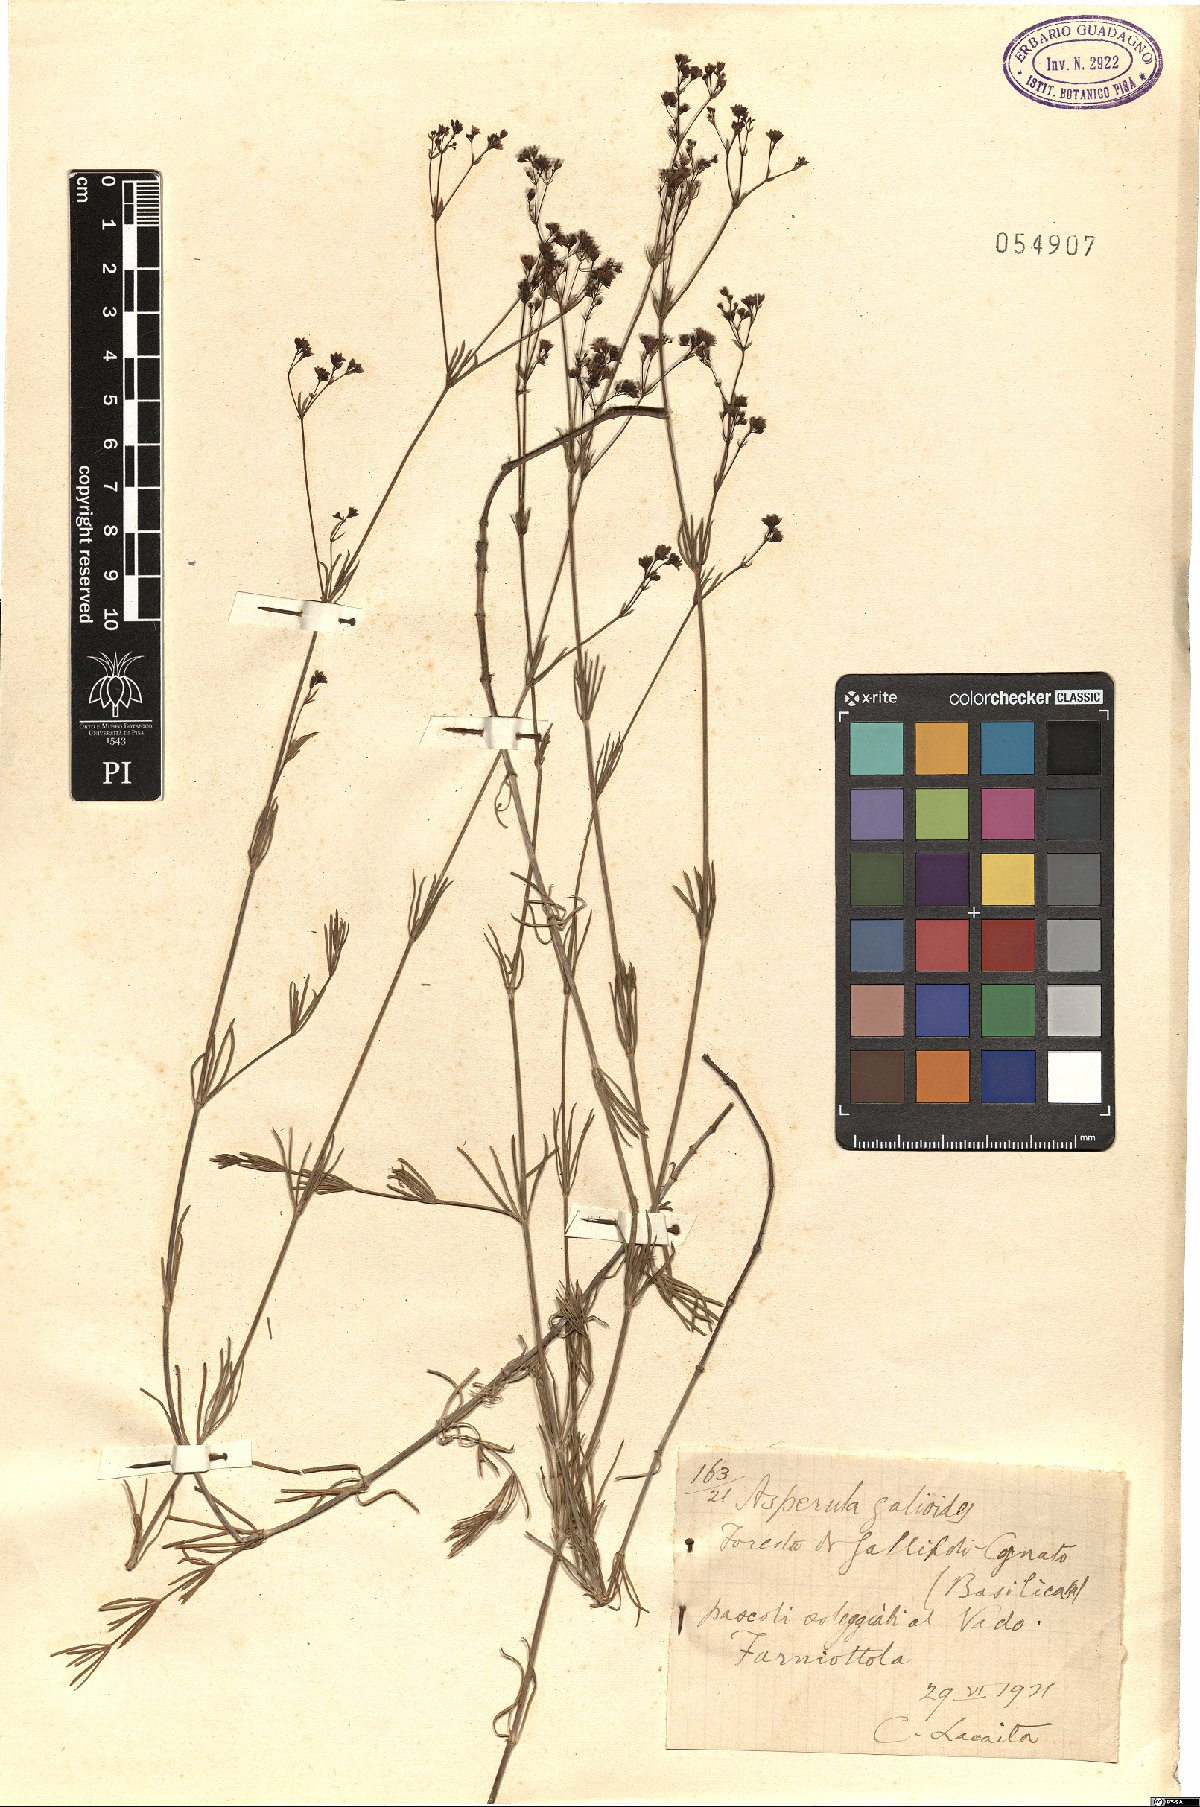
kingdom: Plantae
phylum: Tracheophyta
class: Magnoliopsida
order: Gentianales
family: Rubiaceae
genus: Asperula
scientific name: Asperula galioides
